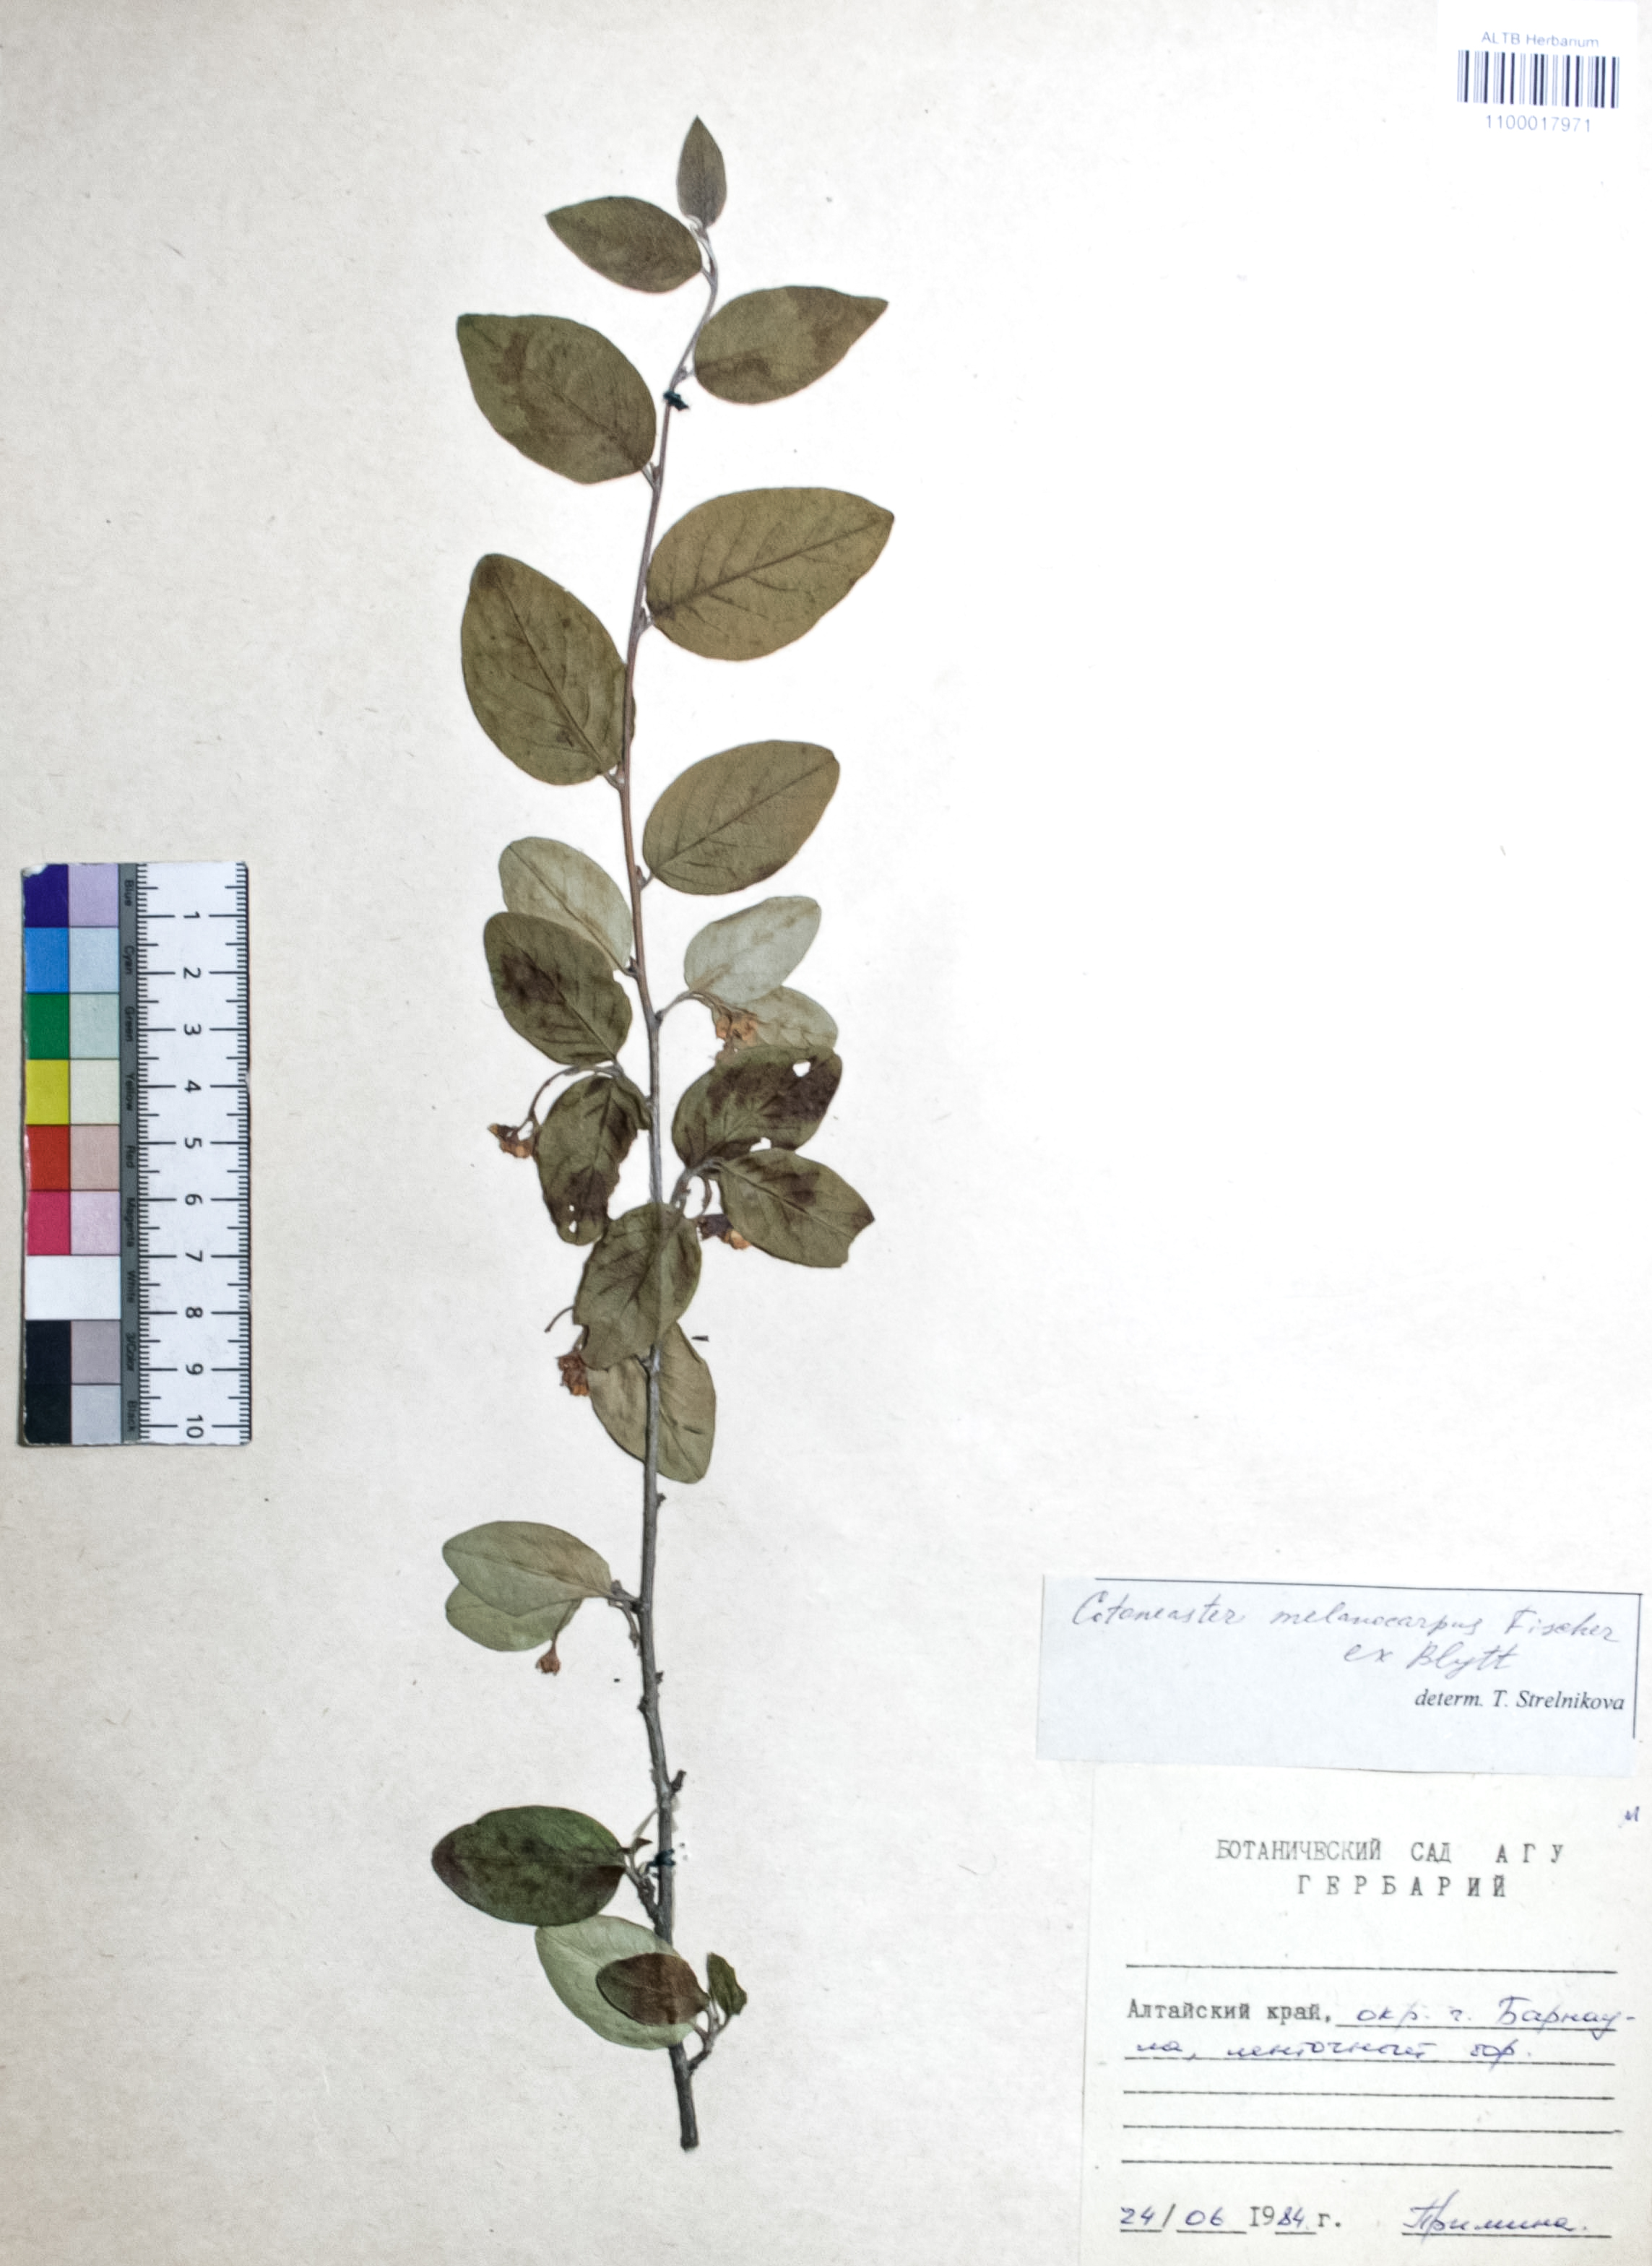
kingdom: Plantae
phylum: Tracheophyta
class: Magnoliopsida
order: Rosales
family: Rosaceae
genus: Cotoneaster
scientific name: Cotoneaster niger
